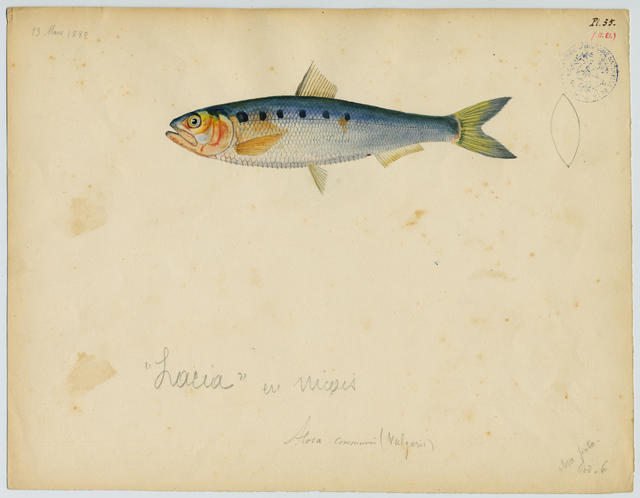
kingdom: Animalia
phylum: Chordata
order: Clupeiformes
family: Clupeidae
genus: Alosa
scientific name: Alosa fallax
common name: Twaite shad
